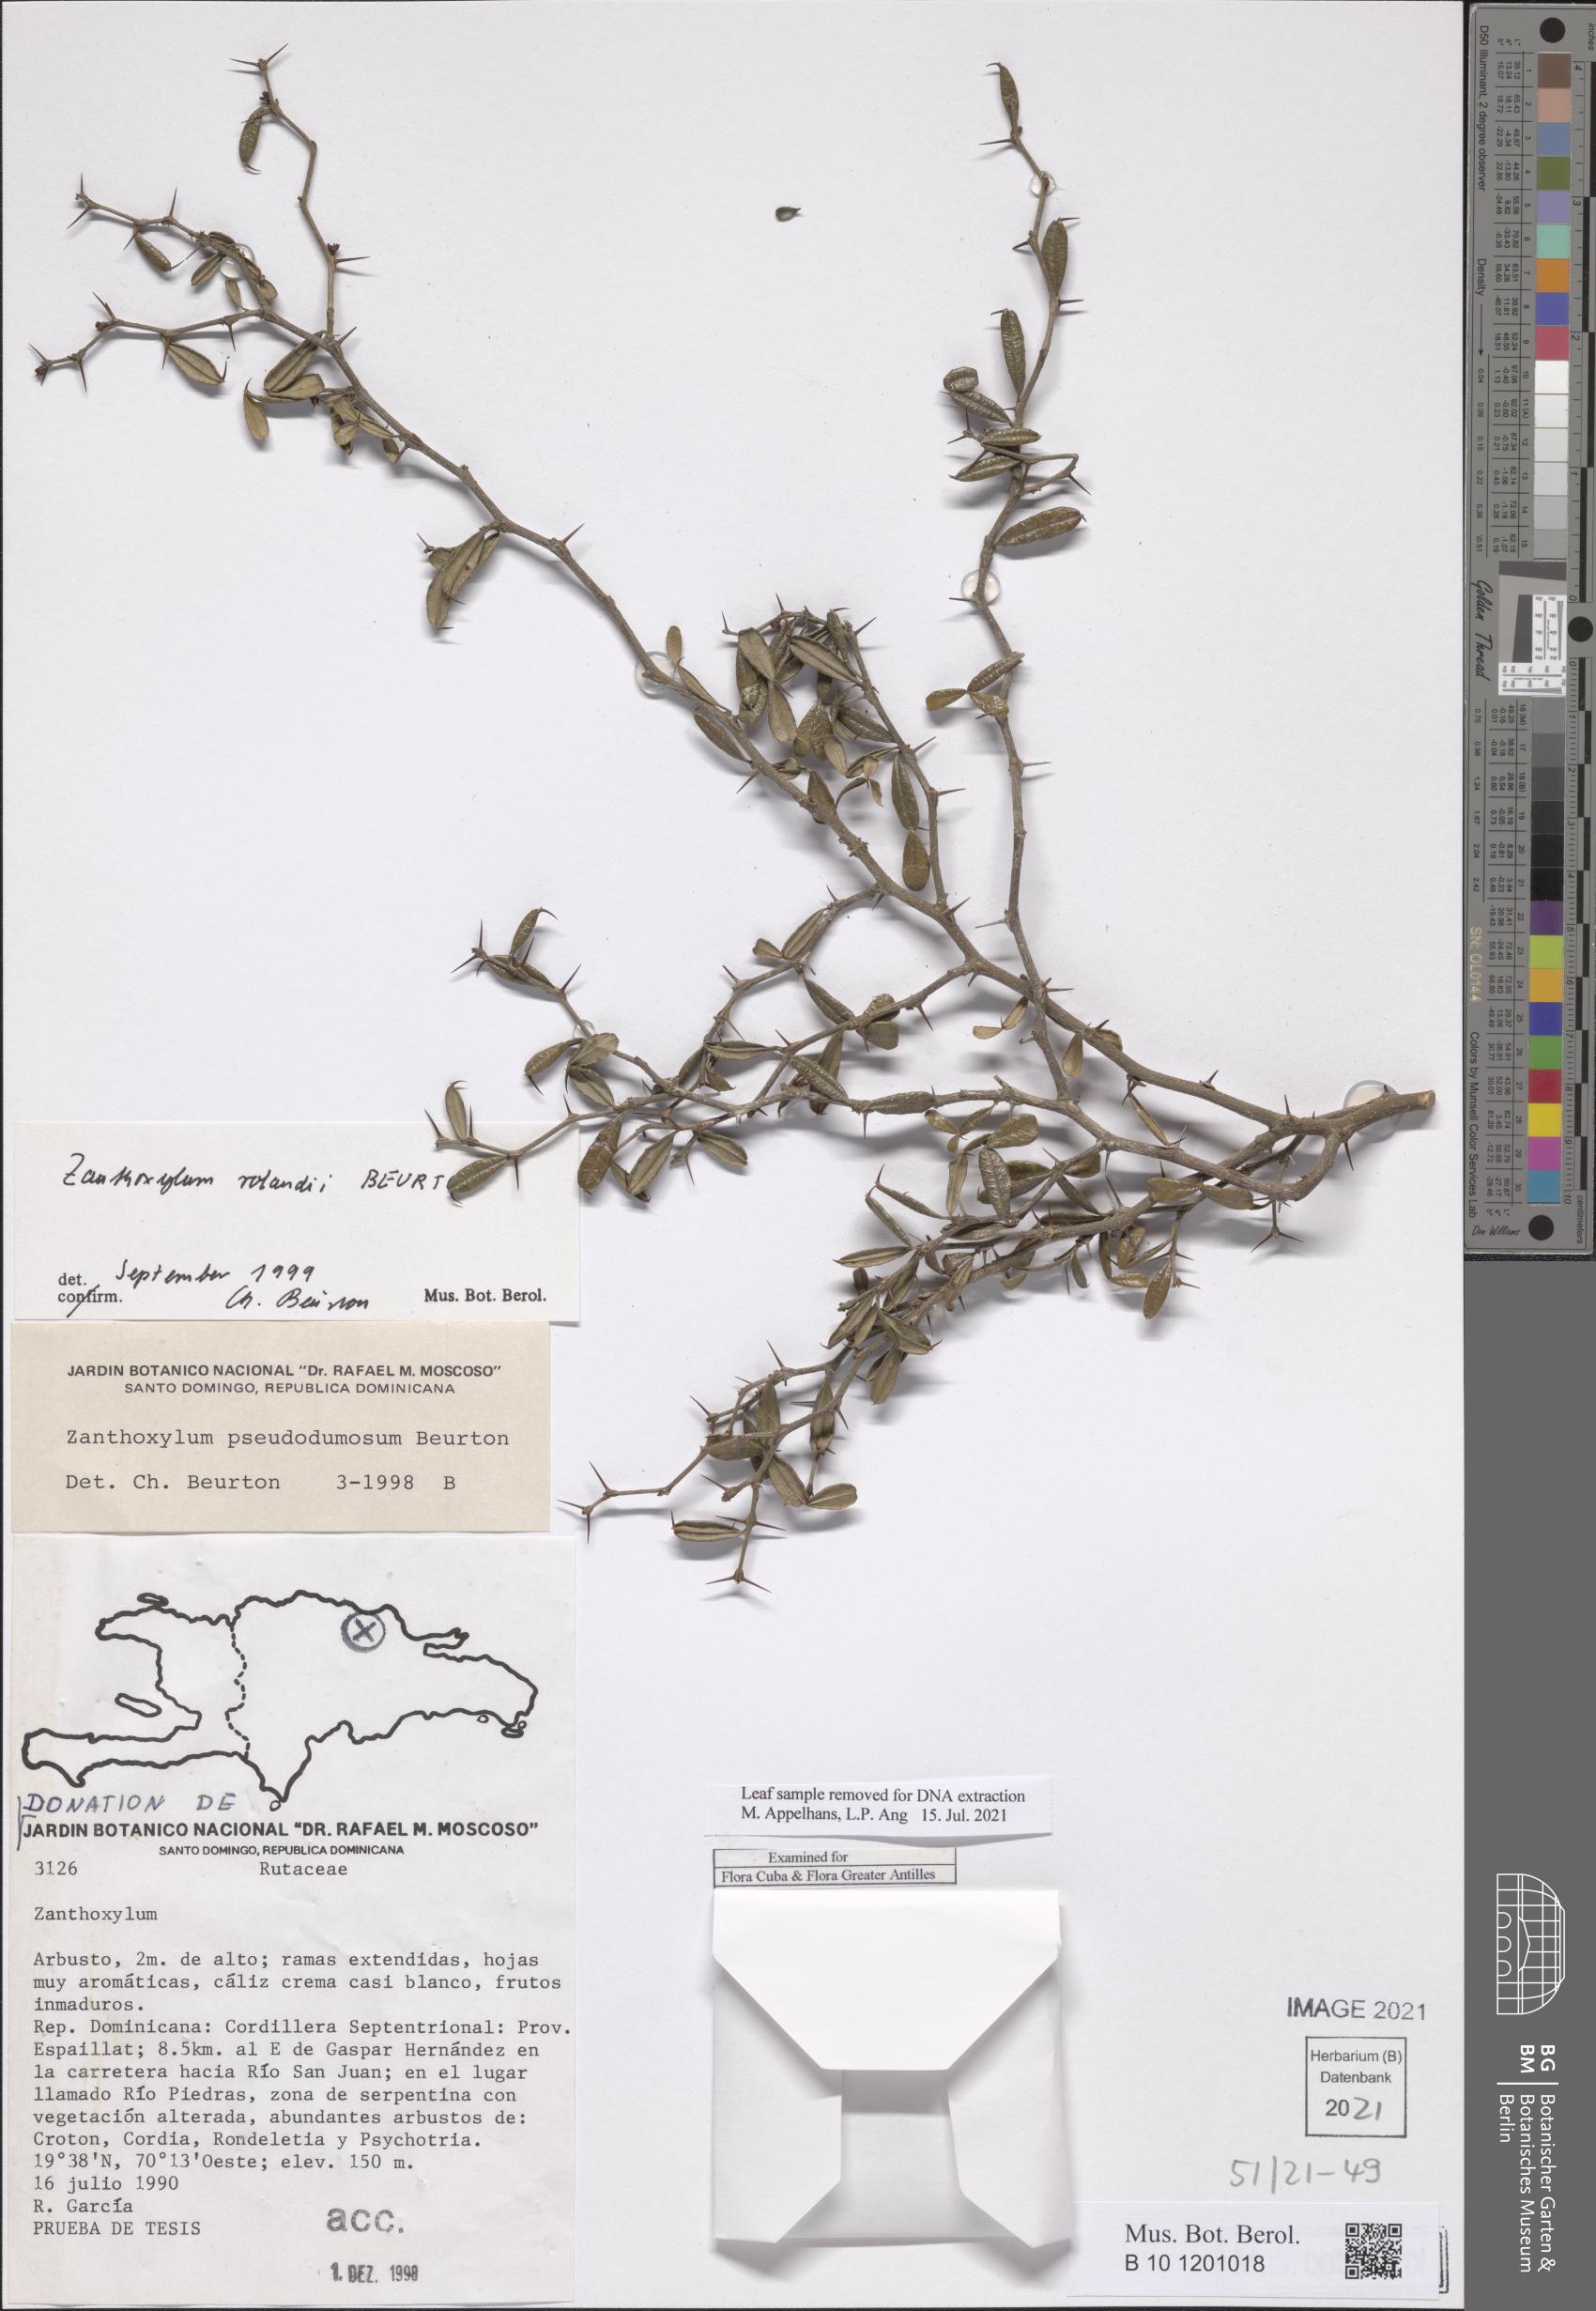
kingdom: Plantae
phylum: Tracheophyta
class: Magnoliopsida
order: Sapindales
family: Rutaceae
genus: Zanthoxylum
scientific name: Zanthoxylum dumosum
